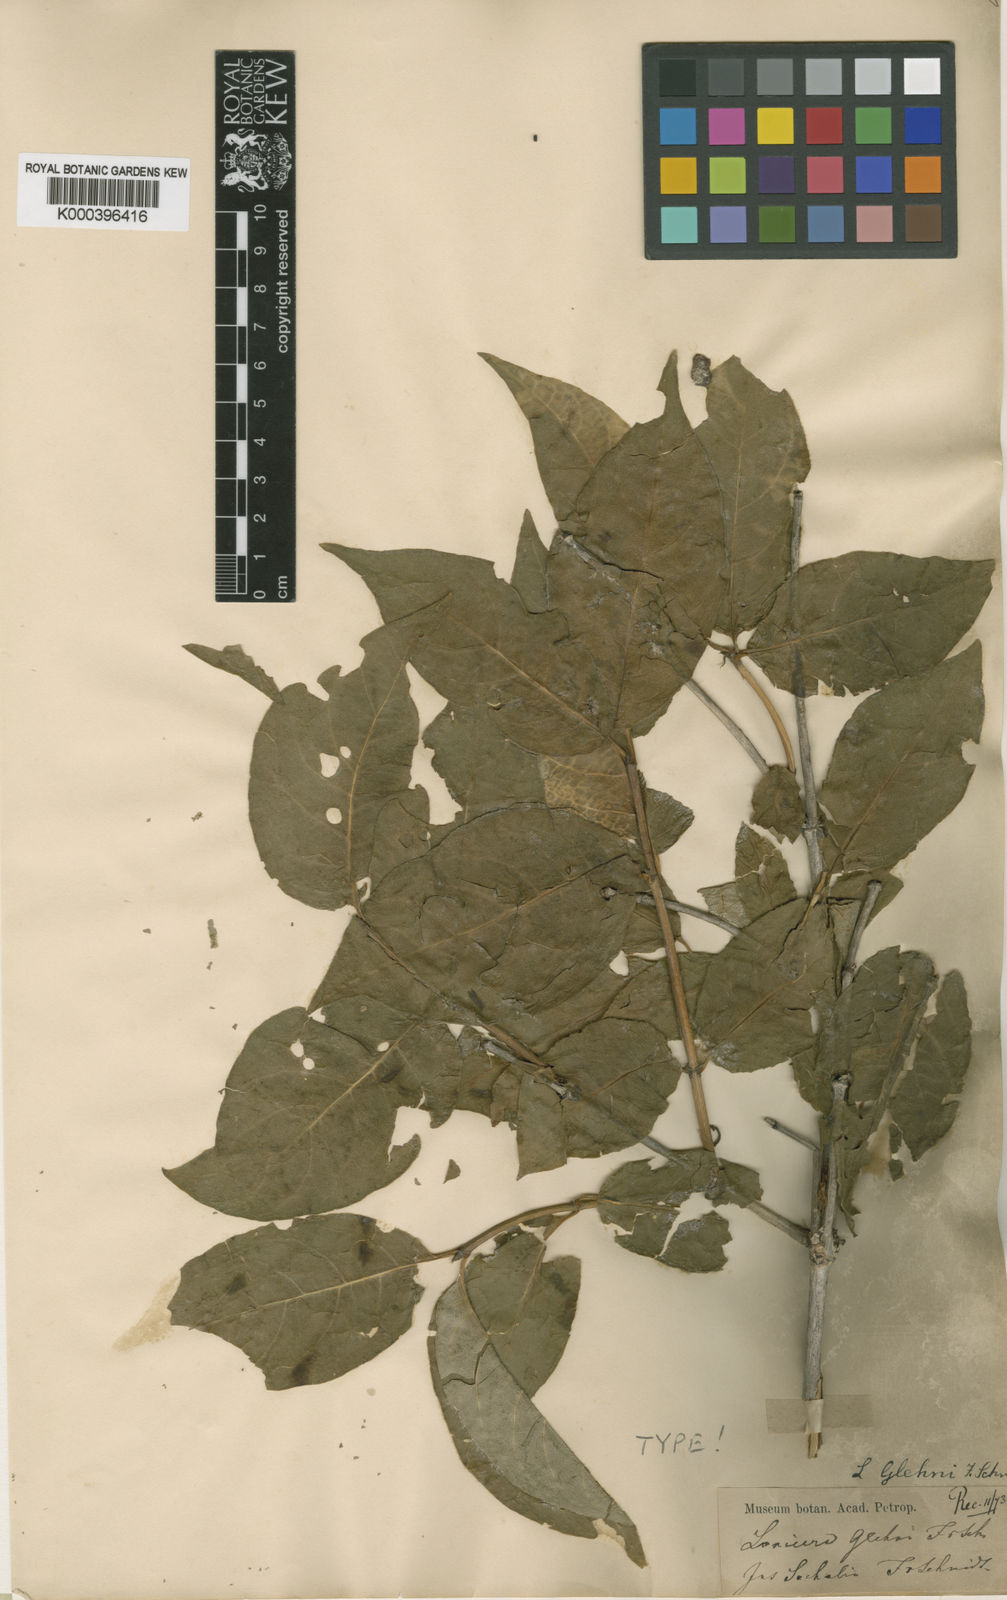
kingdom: Plantae
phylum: Tracheophyta
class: Magnoliopsida
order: Dipsacales
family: Caprifoliaceae
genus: Lonicera
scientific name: Lonicera glehnii
